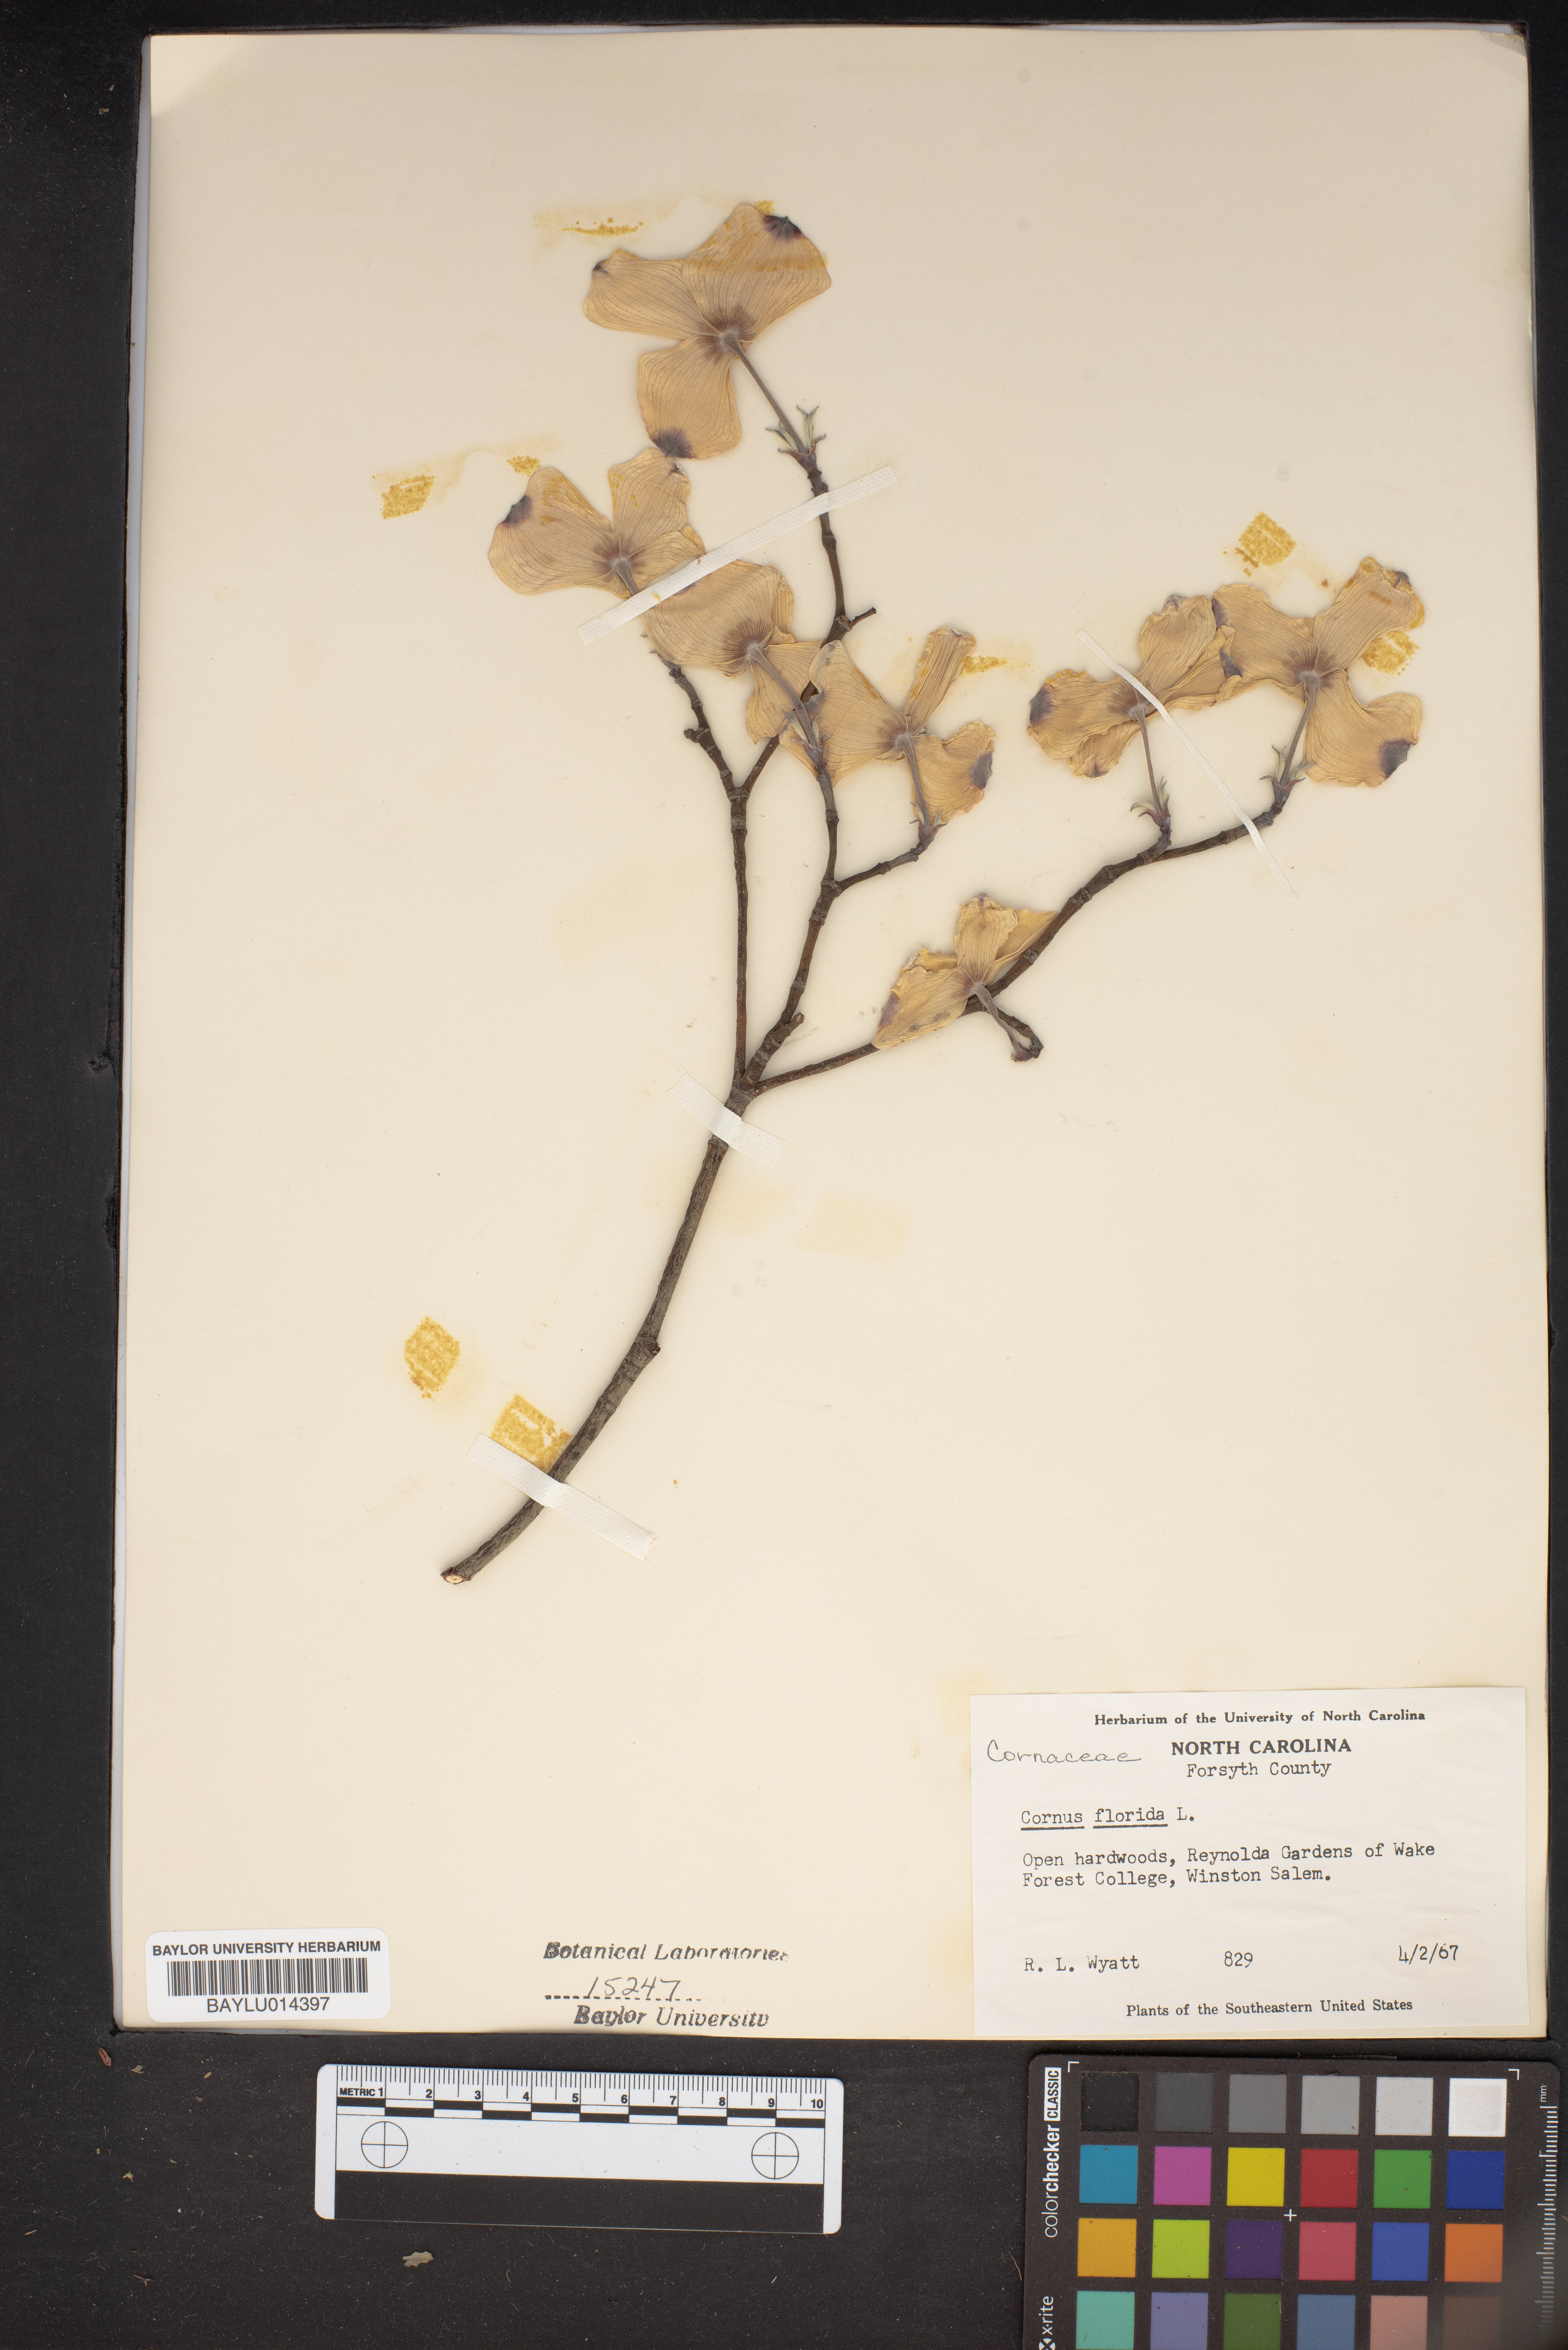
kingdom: Plantae
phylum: Tracheophyta
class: Magnoliopsida
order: Cornales
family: Cornaceae
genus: Cornus
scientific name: Cornus florida
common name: Flowering dogwood
